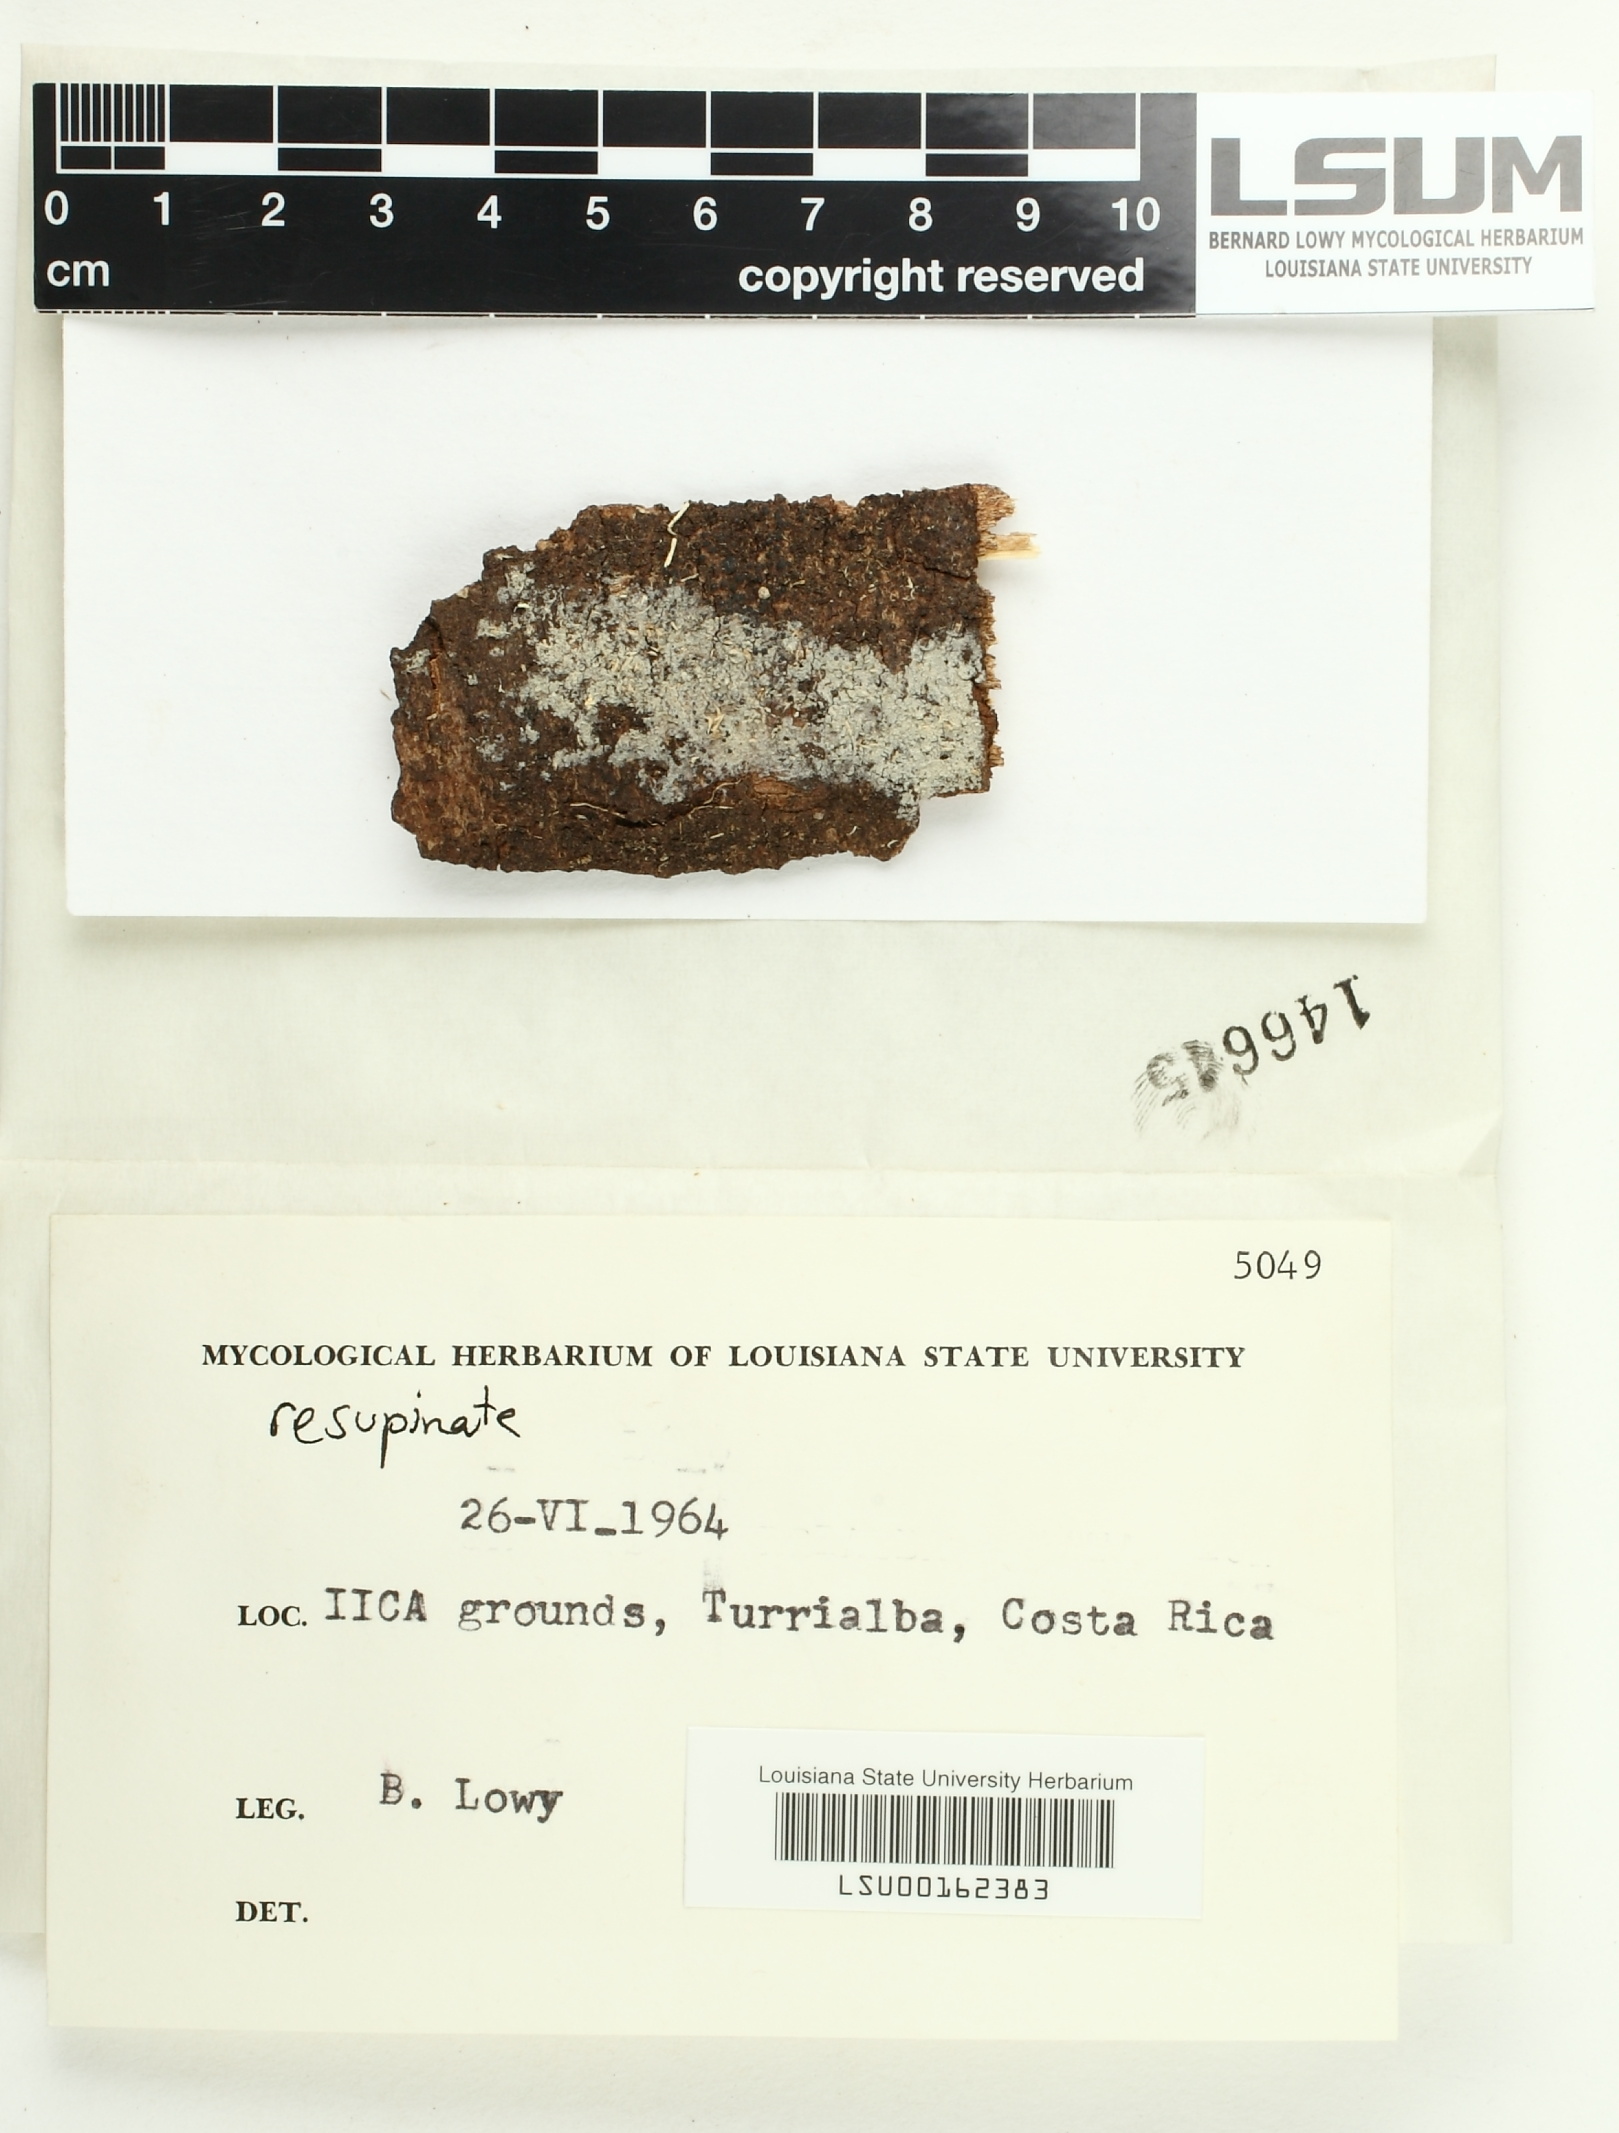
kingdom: Fungi
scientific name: Fungi
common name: Fungi
